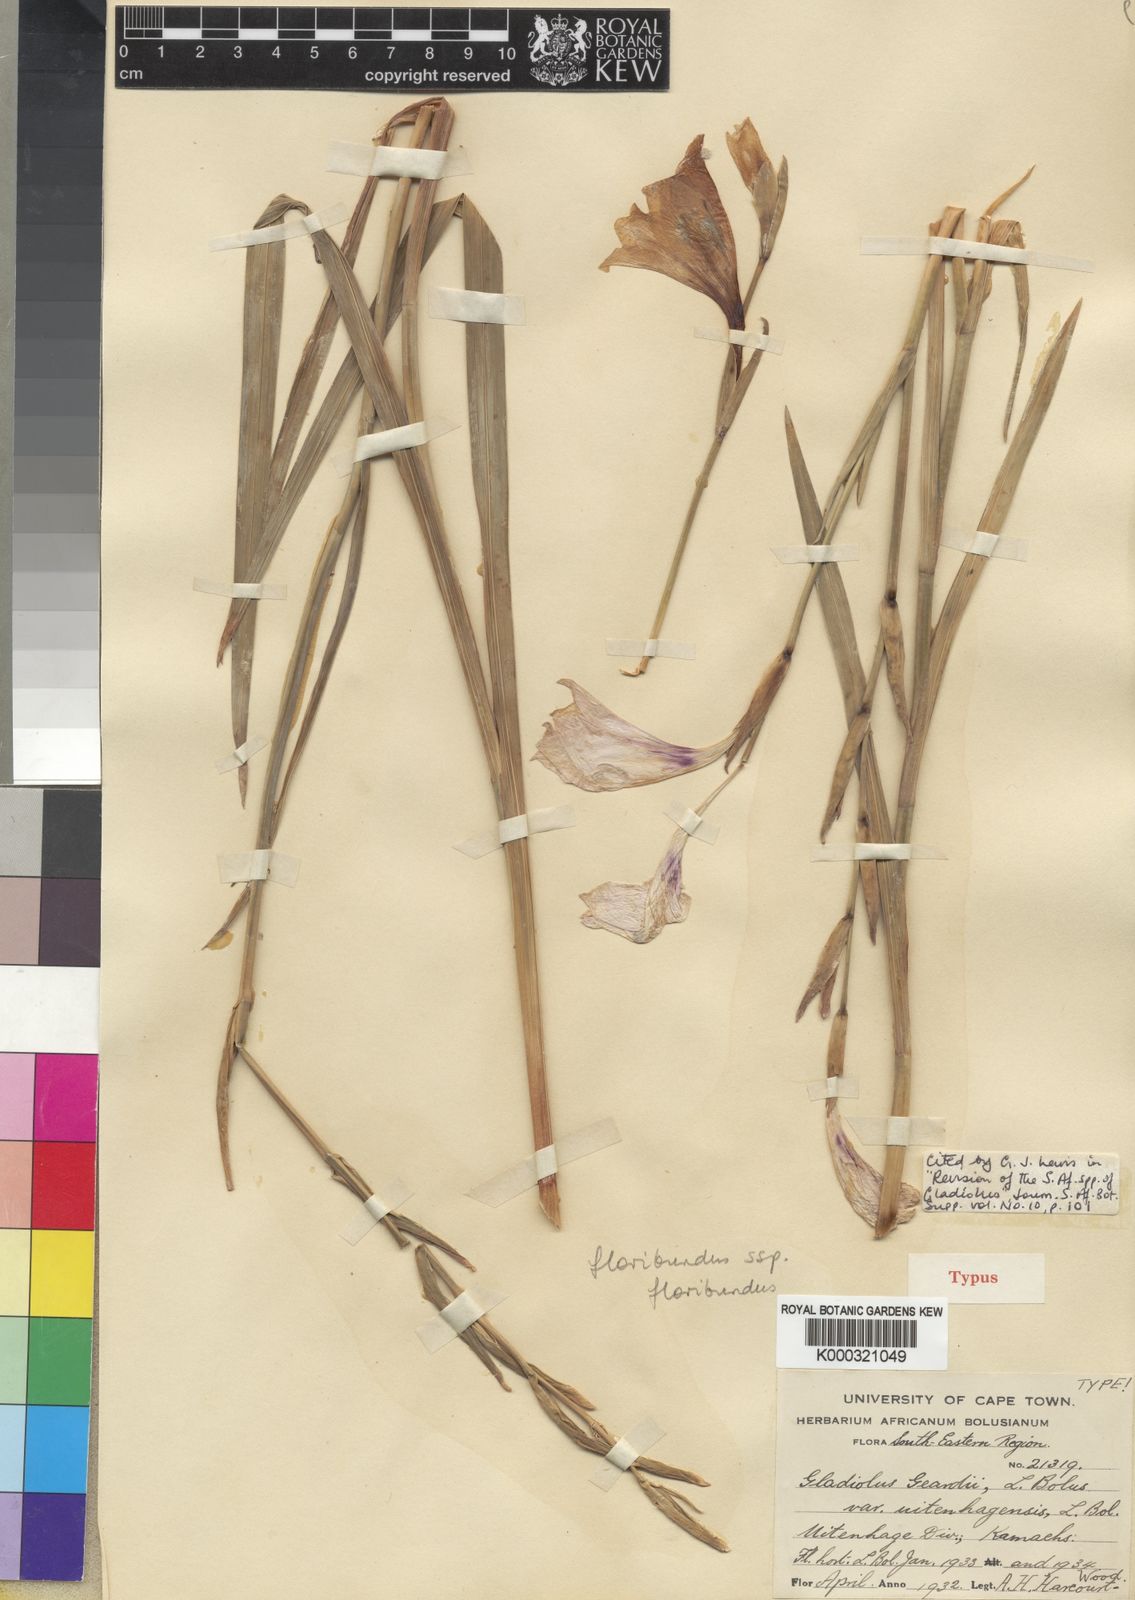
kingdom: Plantae
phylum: Tracheophyta
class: Liliopsida
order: Asparagales
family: Iridaceae
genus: Gladiolus
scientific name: Gladiolus geardii
